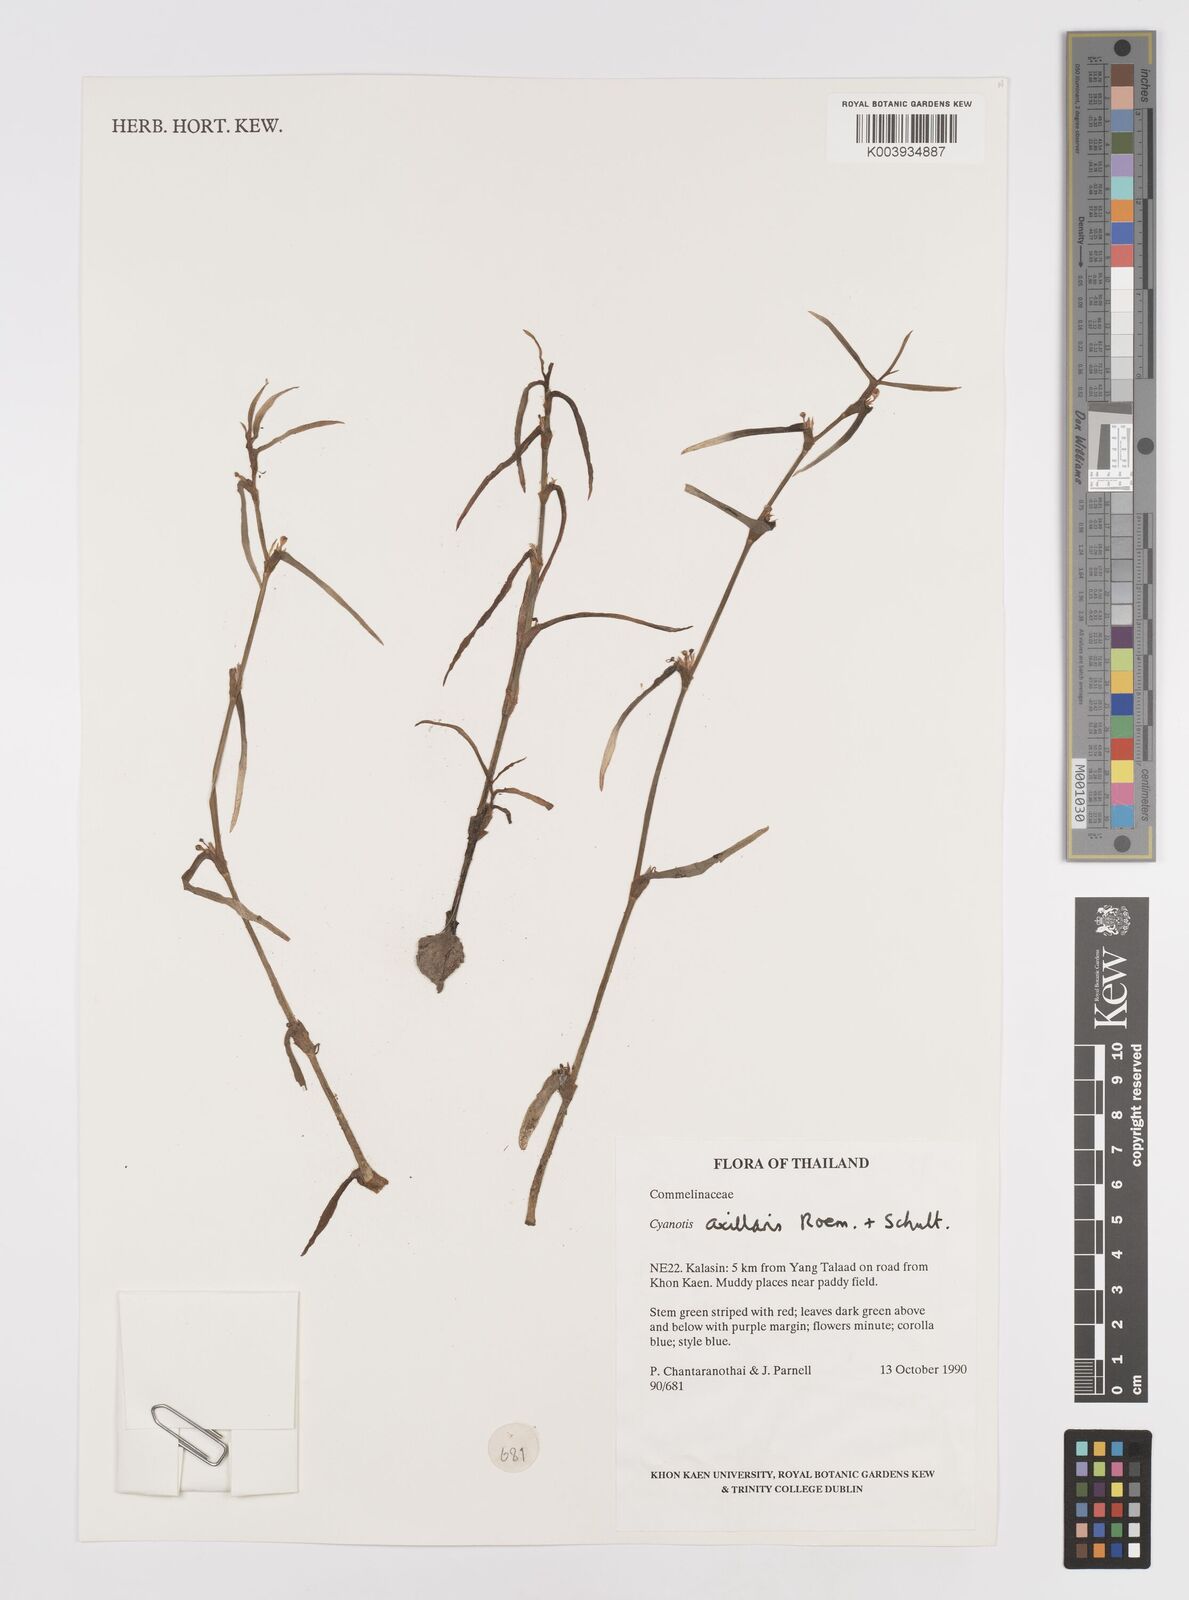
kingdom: Plantae
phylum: Tracheophyta
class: Liliopsida
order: Commelinales
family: Commelinaceae
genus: Cyanotis
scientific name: Cyanotis axillaris
